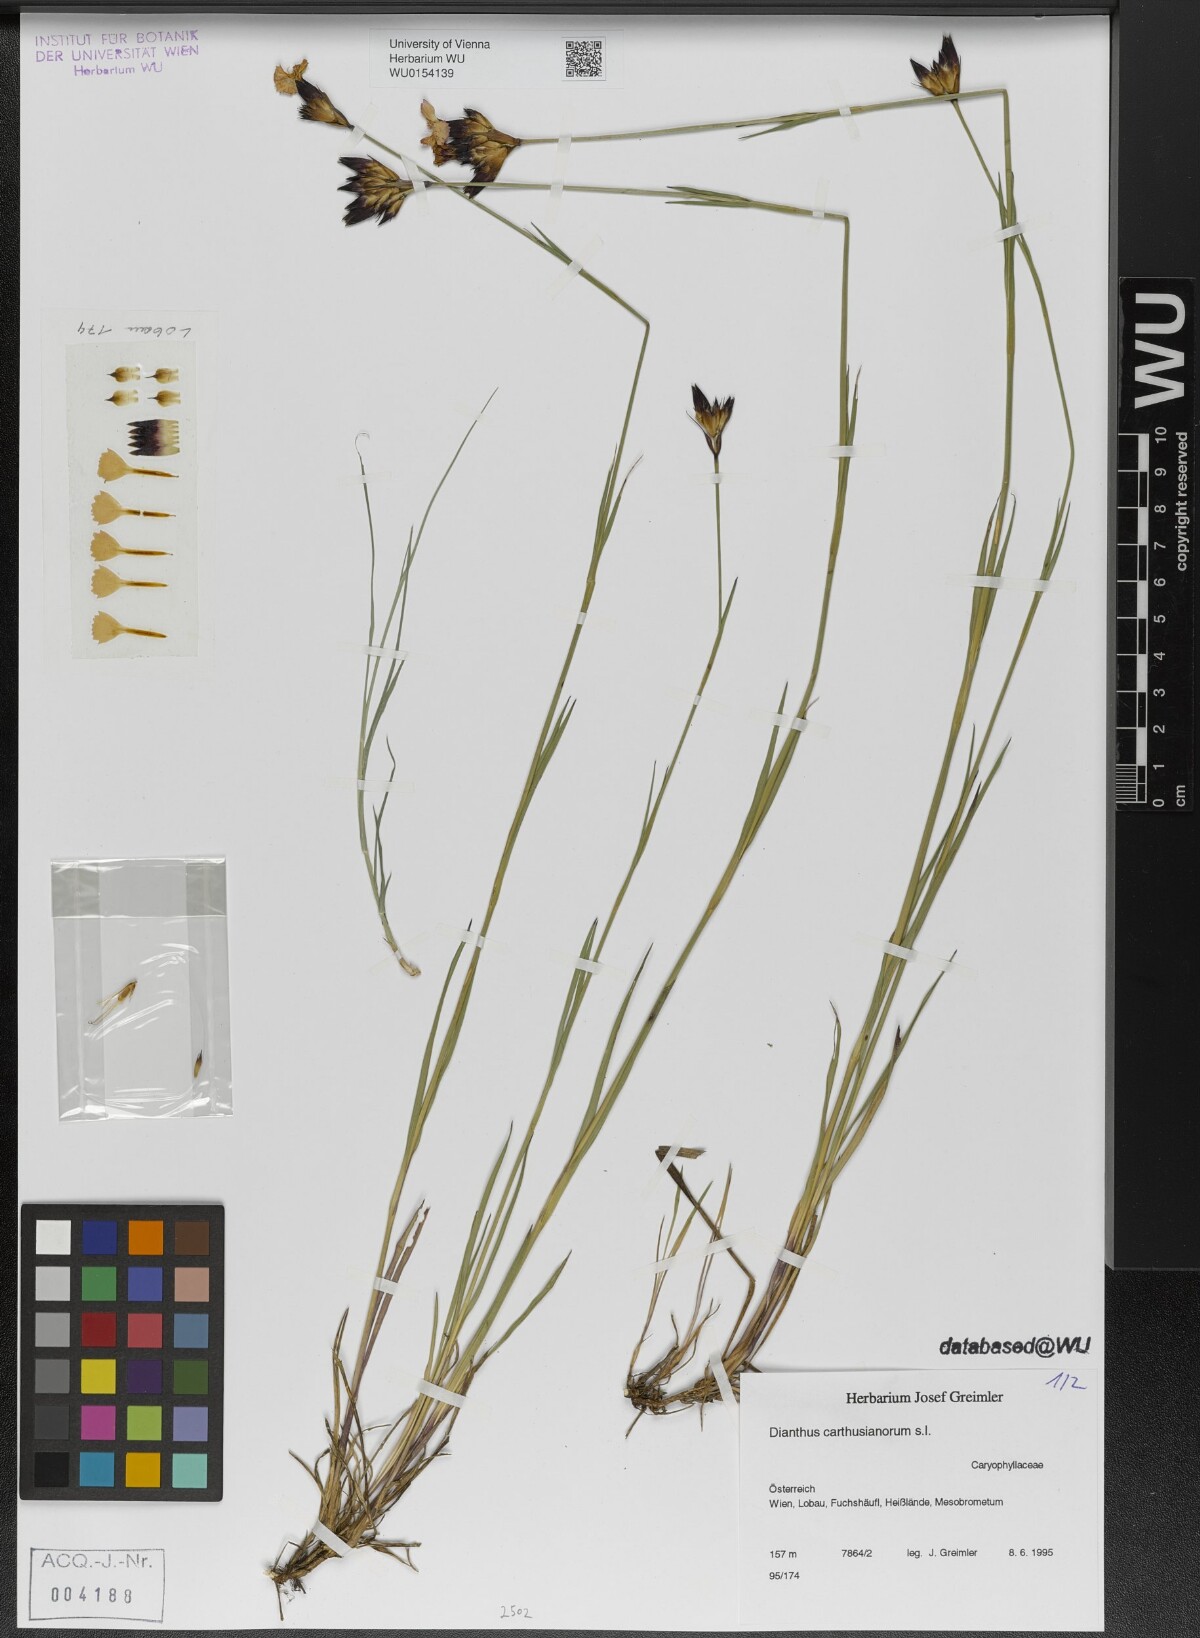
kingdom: Plantae
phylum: Tracheophyta
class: Magnoliopsida
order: Caryophyllales
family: Caryophyllaceae
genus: Dianthus
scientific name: Dianthus carthusianorum
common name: Carthusian pink
